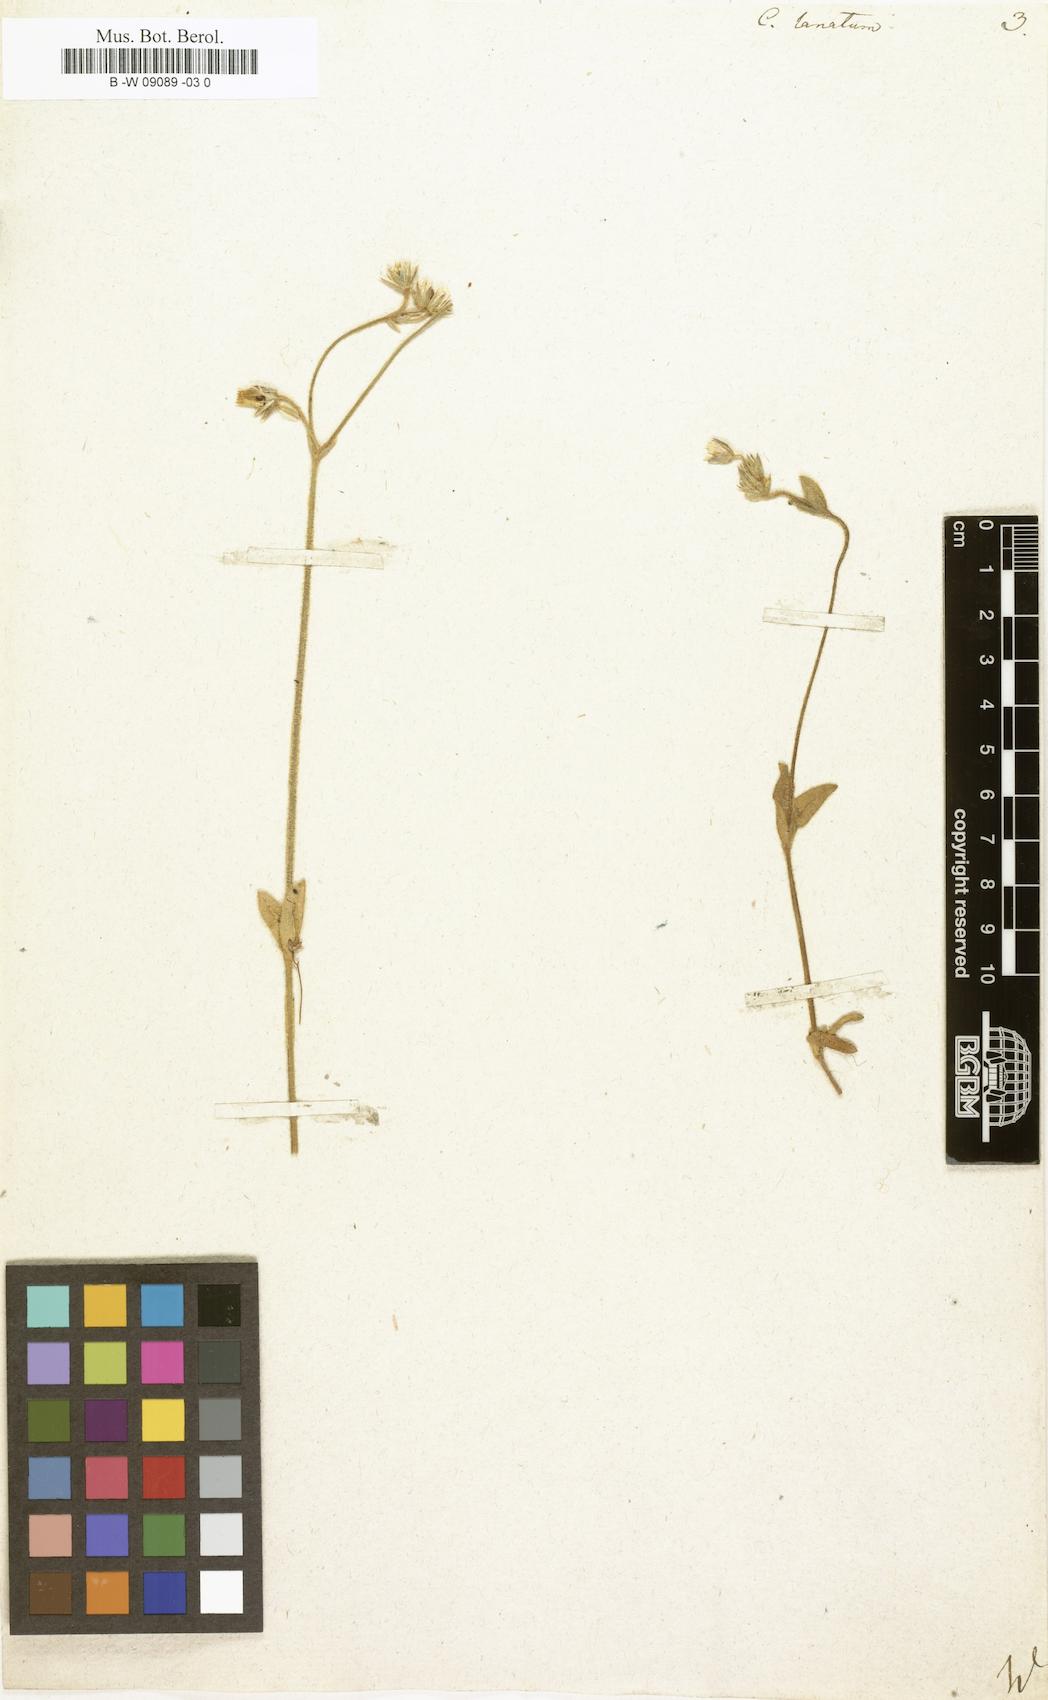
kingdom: Plantae
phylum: Tracheophyta
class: Magnoliopsida
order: Caryophyllales
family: Caryophyllaceae
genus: Cerastium
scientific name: Cerastium alpinum
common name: Alpine mouse-ear
